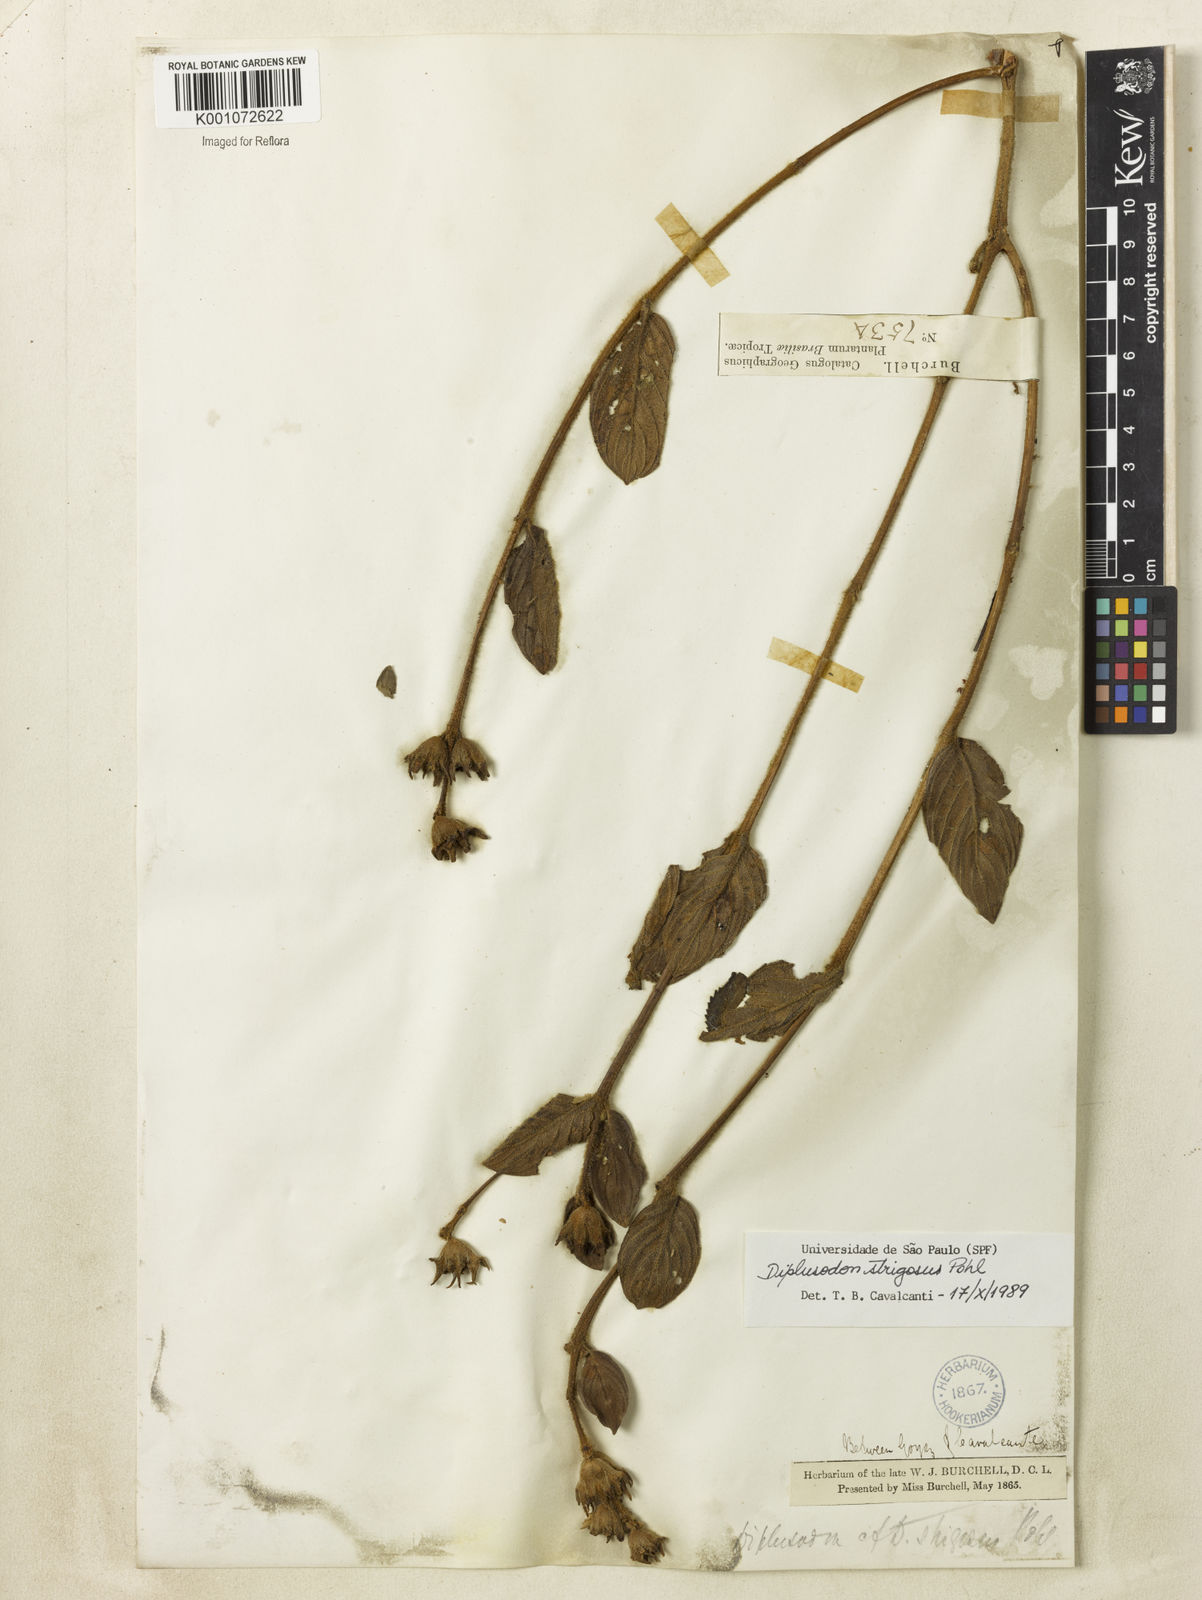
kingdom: Plantae
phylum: Tracheophyta
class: Magnoliopsida
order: Myrtales
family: Lythraceae
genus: Diplusodon
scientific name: Diplusodon strigosus
